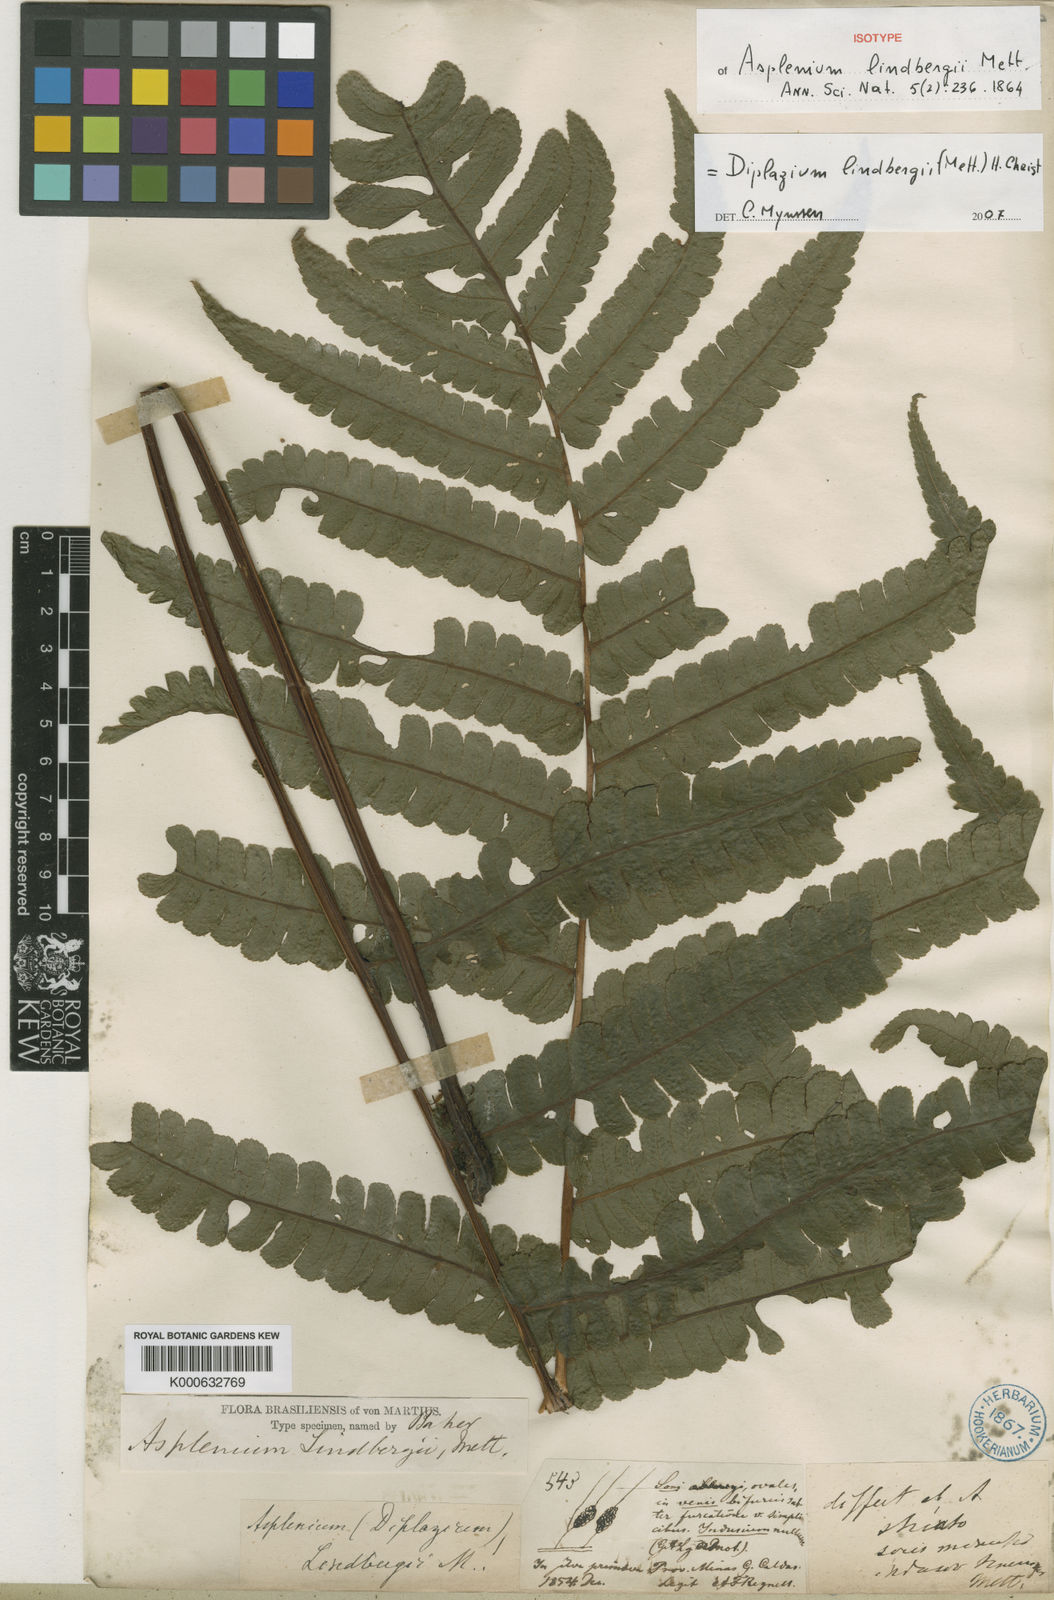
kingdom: Plantae
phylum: Tracheophyta
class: Polypodiopsida
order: Polypodiales
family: Athyriaceae
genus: Diplazium
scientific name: Diplazium lindbergii
